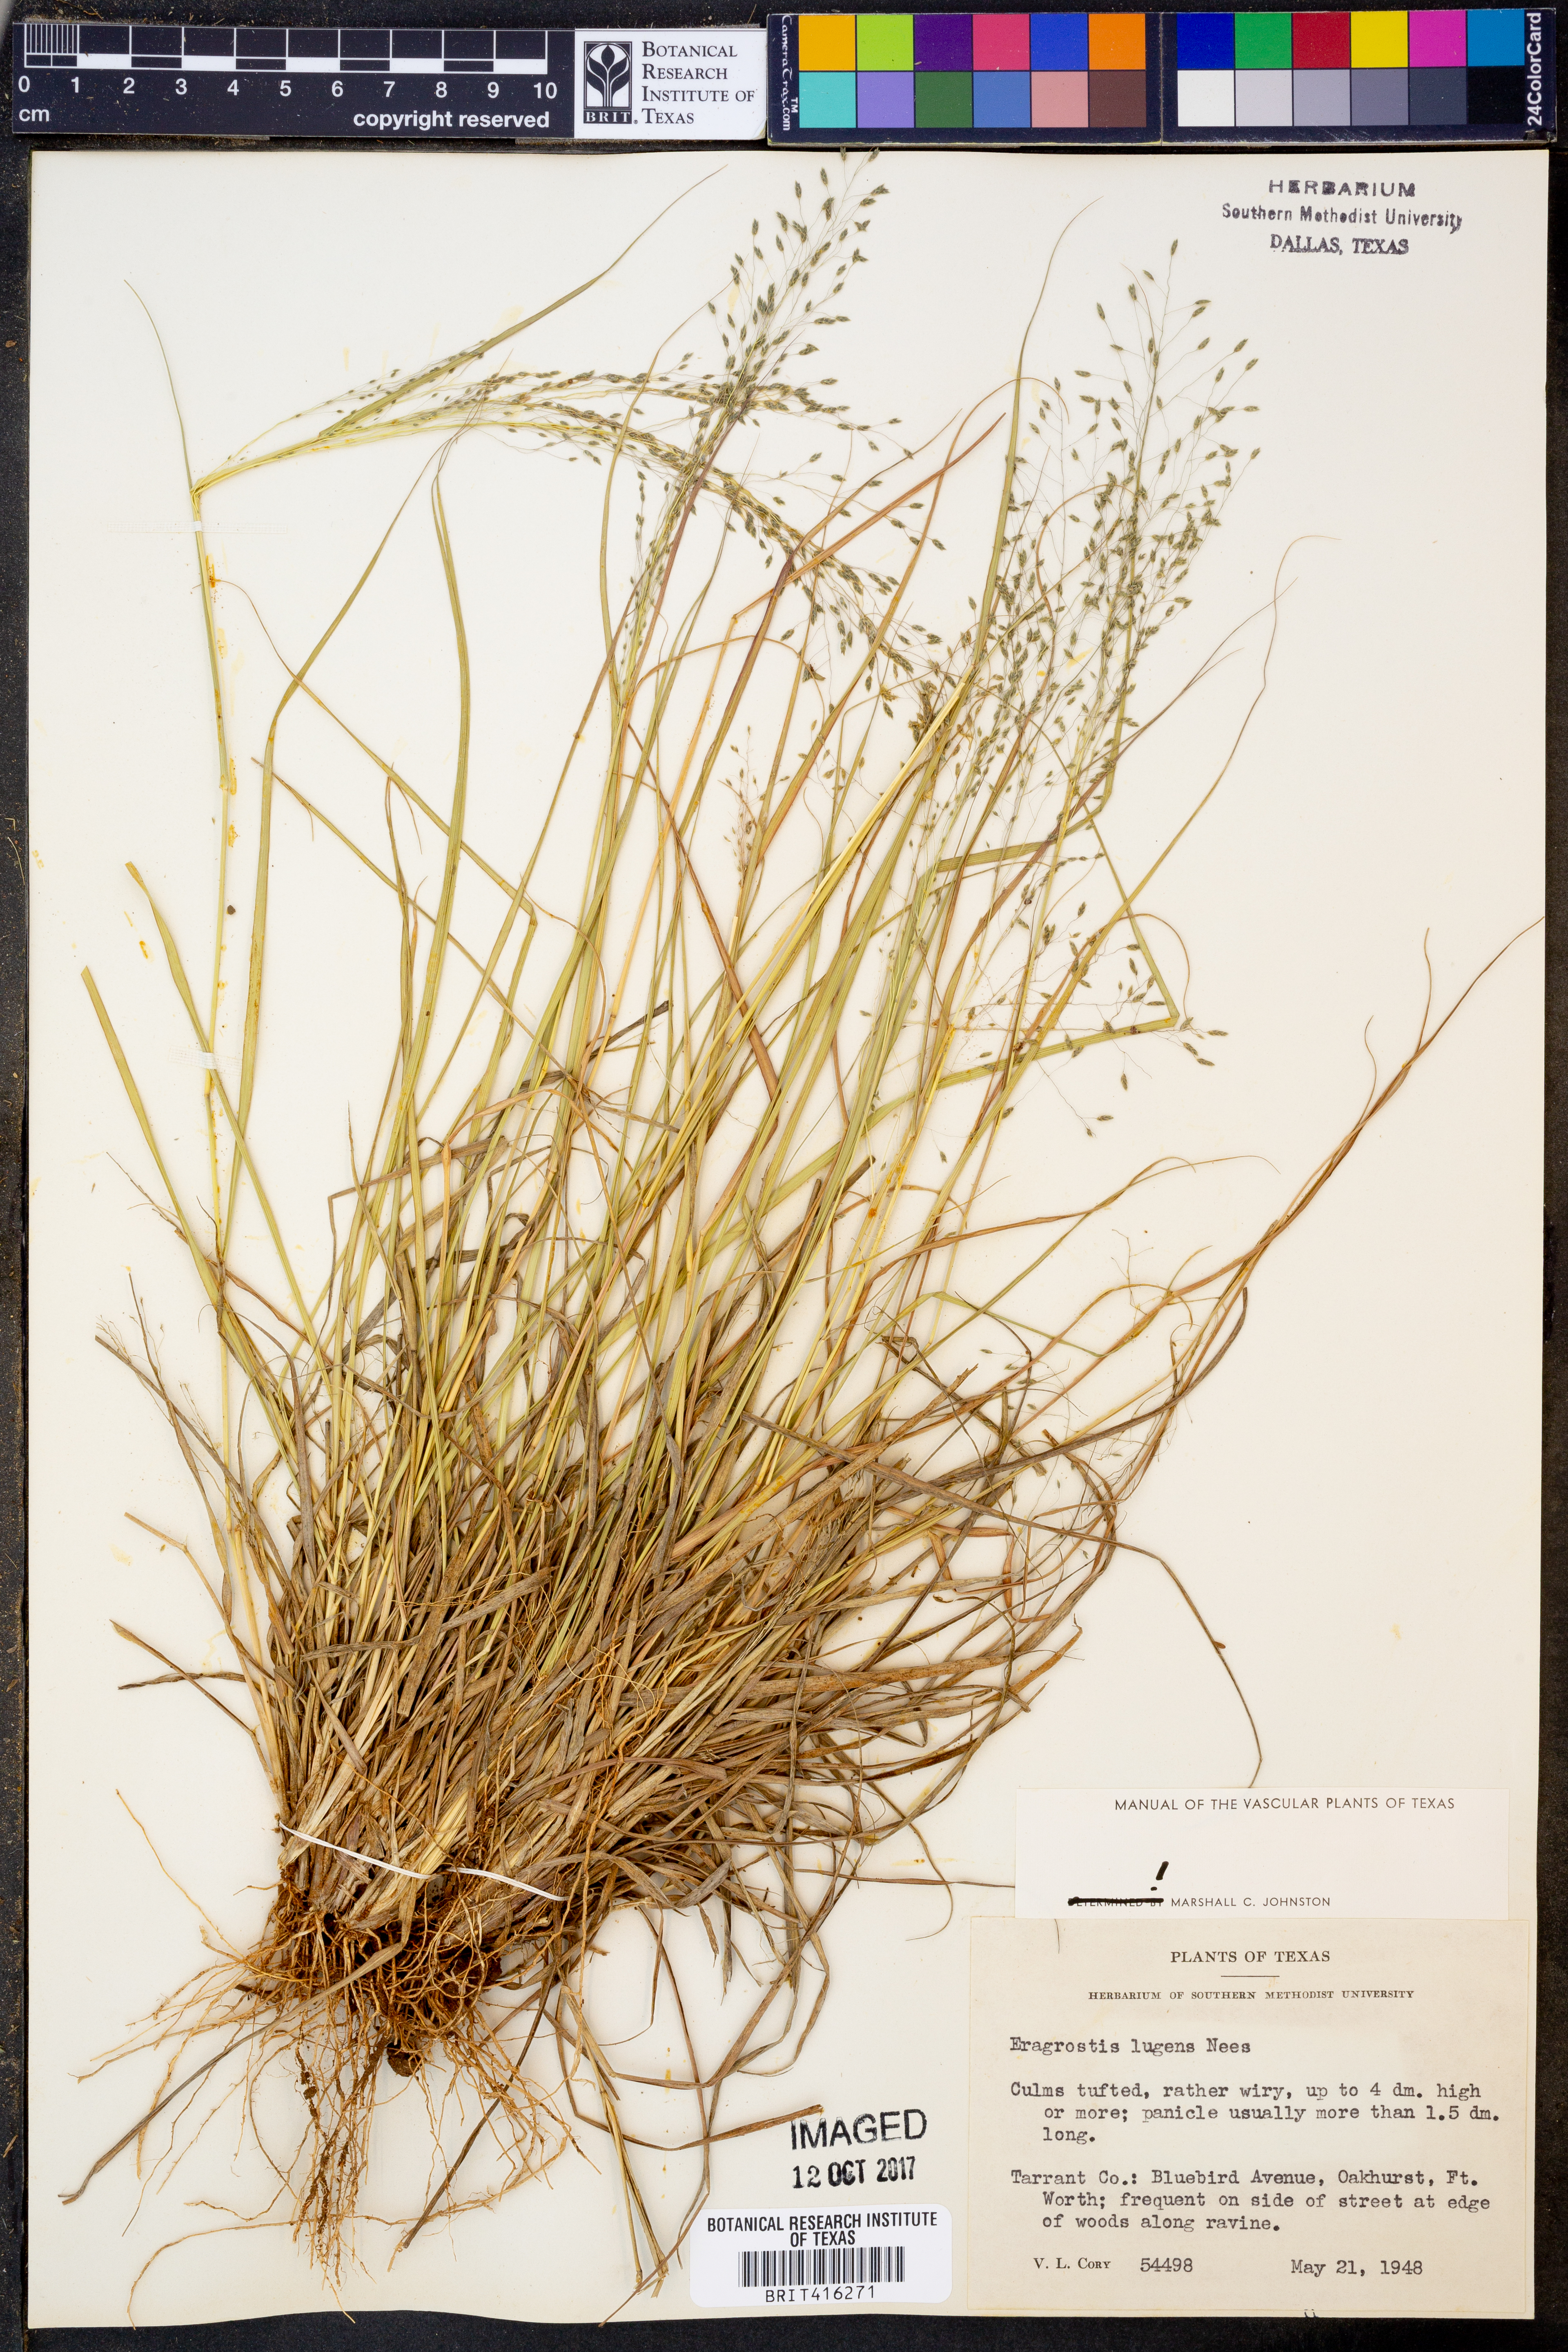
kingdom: Plantae
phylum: Tracheophyta
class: Liliopsida
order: Poales
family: Poaceae
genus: Eragrostis
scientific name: Eragrostis capillaris
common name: Hair-like lovegrass
